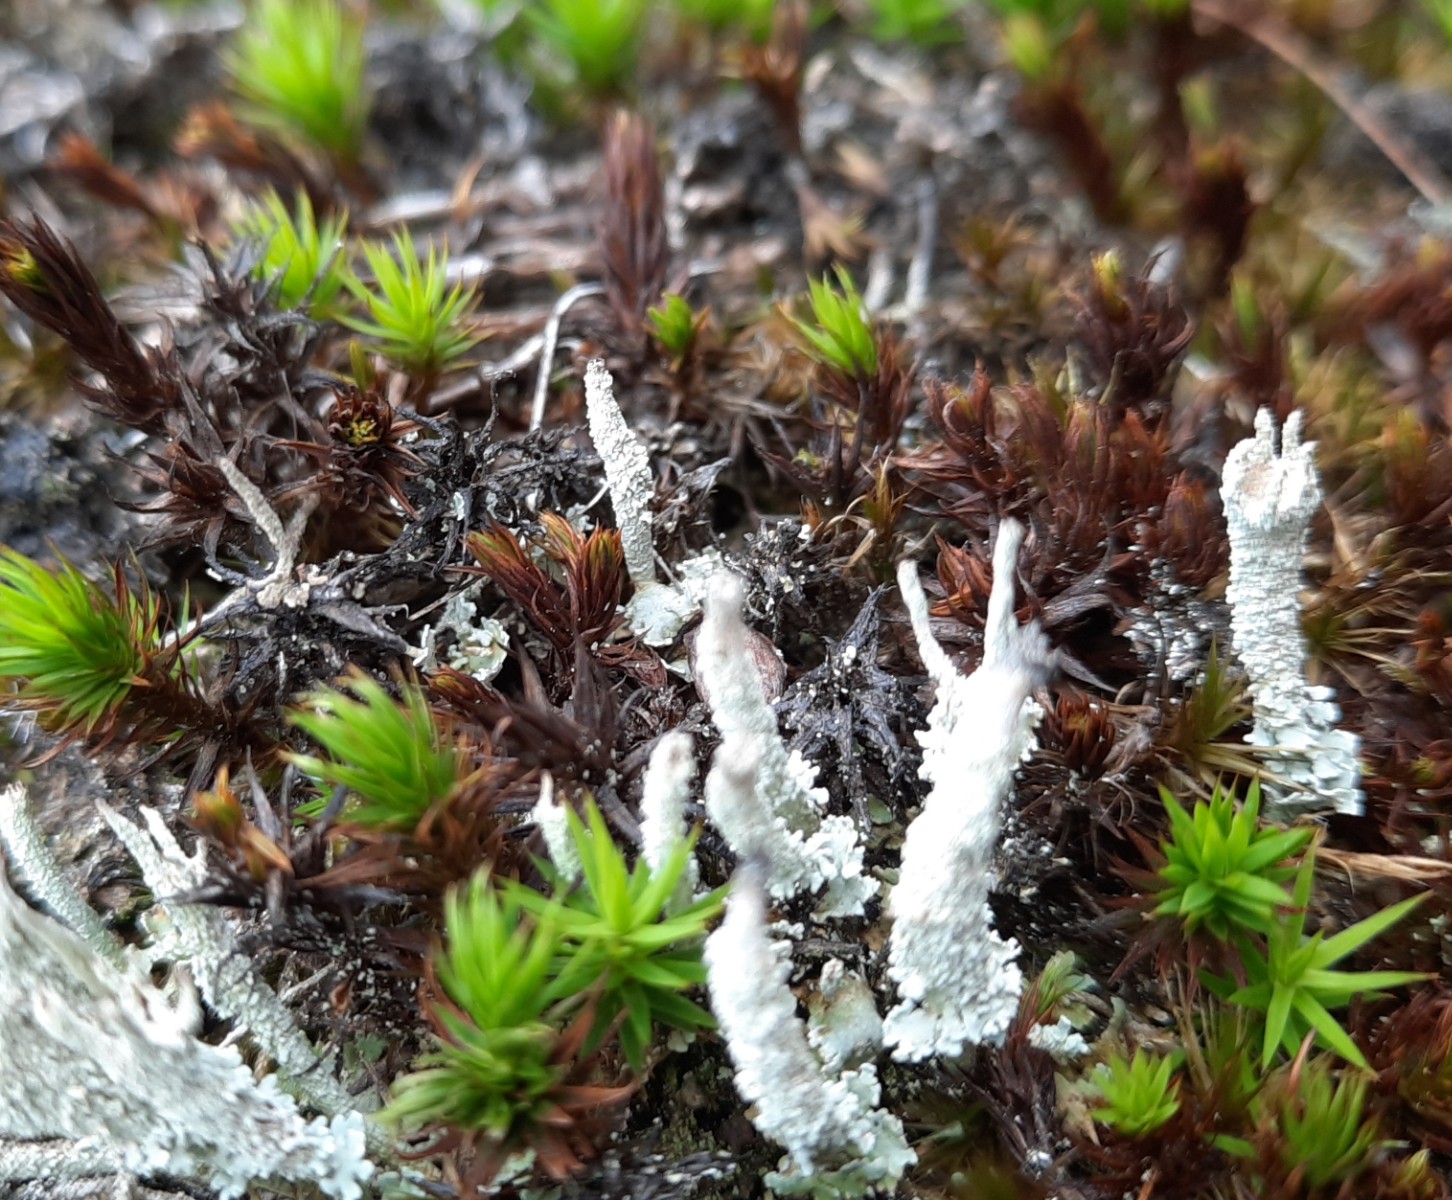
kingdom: Fungi
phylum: Ascomycota
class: Lecanoromycetes
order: Lecanorales
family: Cladoniaceae
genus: Cladonia
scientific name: Cladonia
